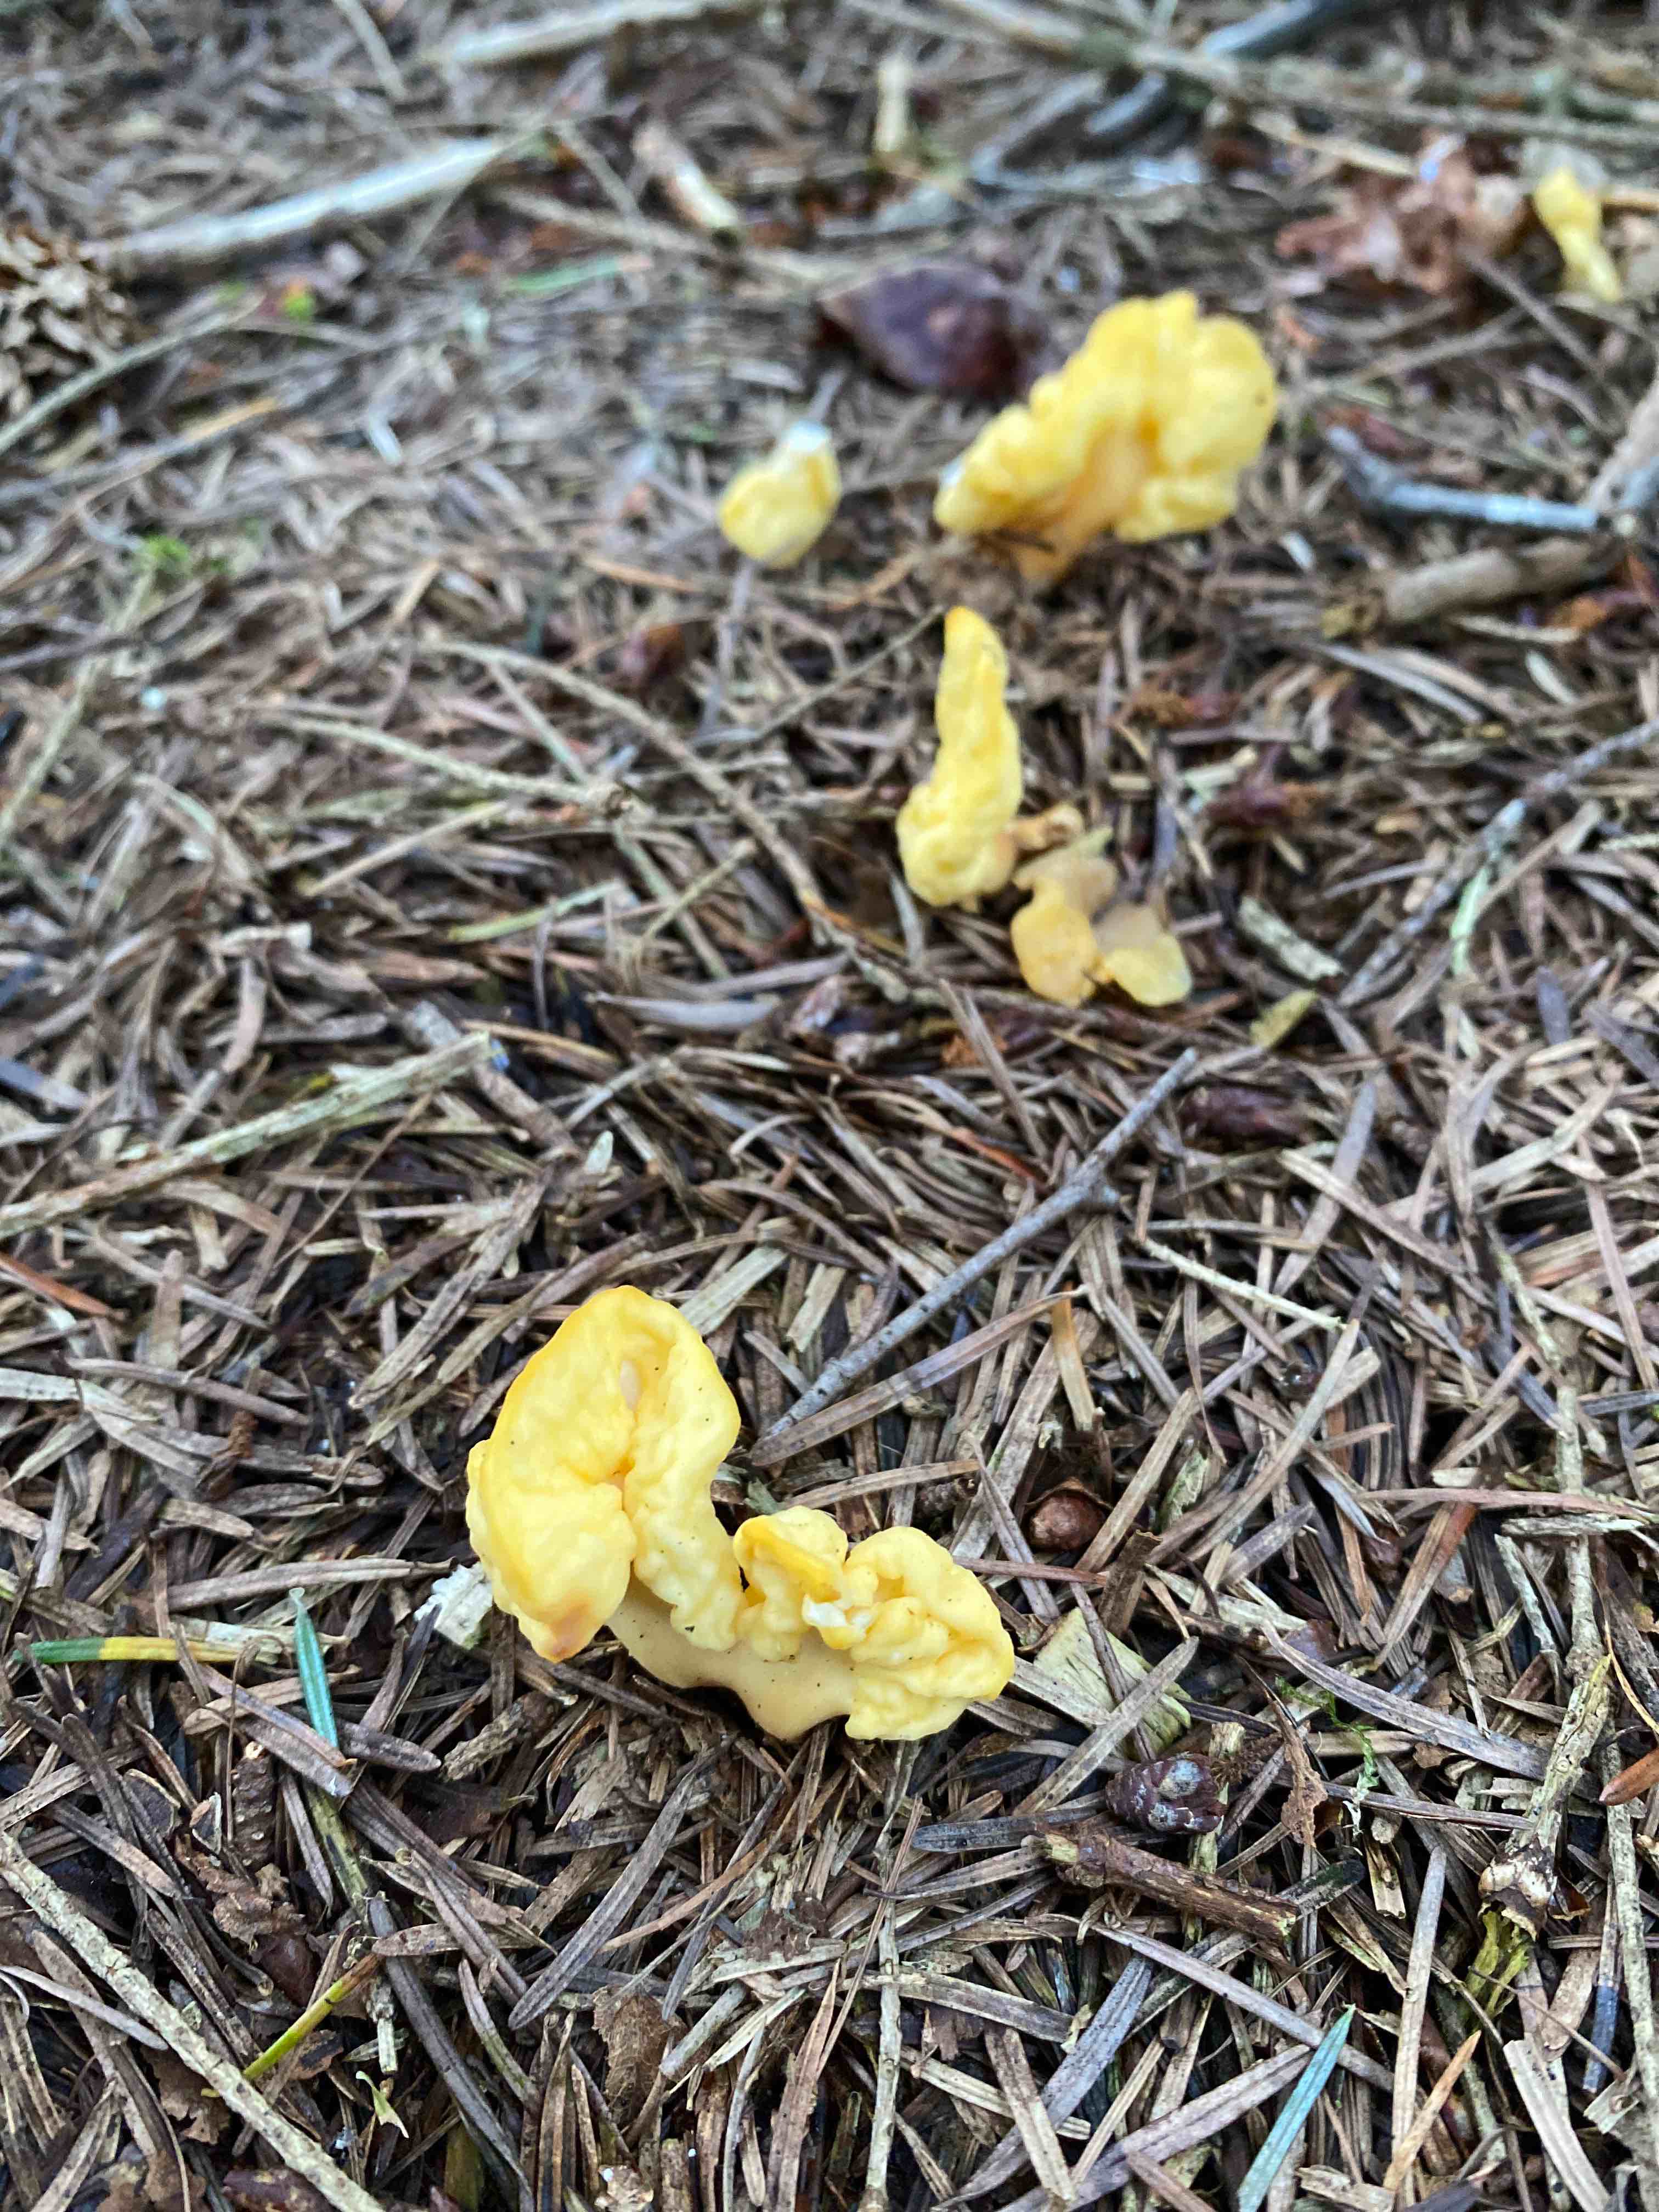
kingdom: Fungi
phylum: Ascomycota
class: Leotiomycetes
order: Rhytismatales
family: Cudoniaceae
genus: Spathularia
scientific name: Spathularia flavida
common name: gul spatelsvamp
